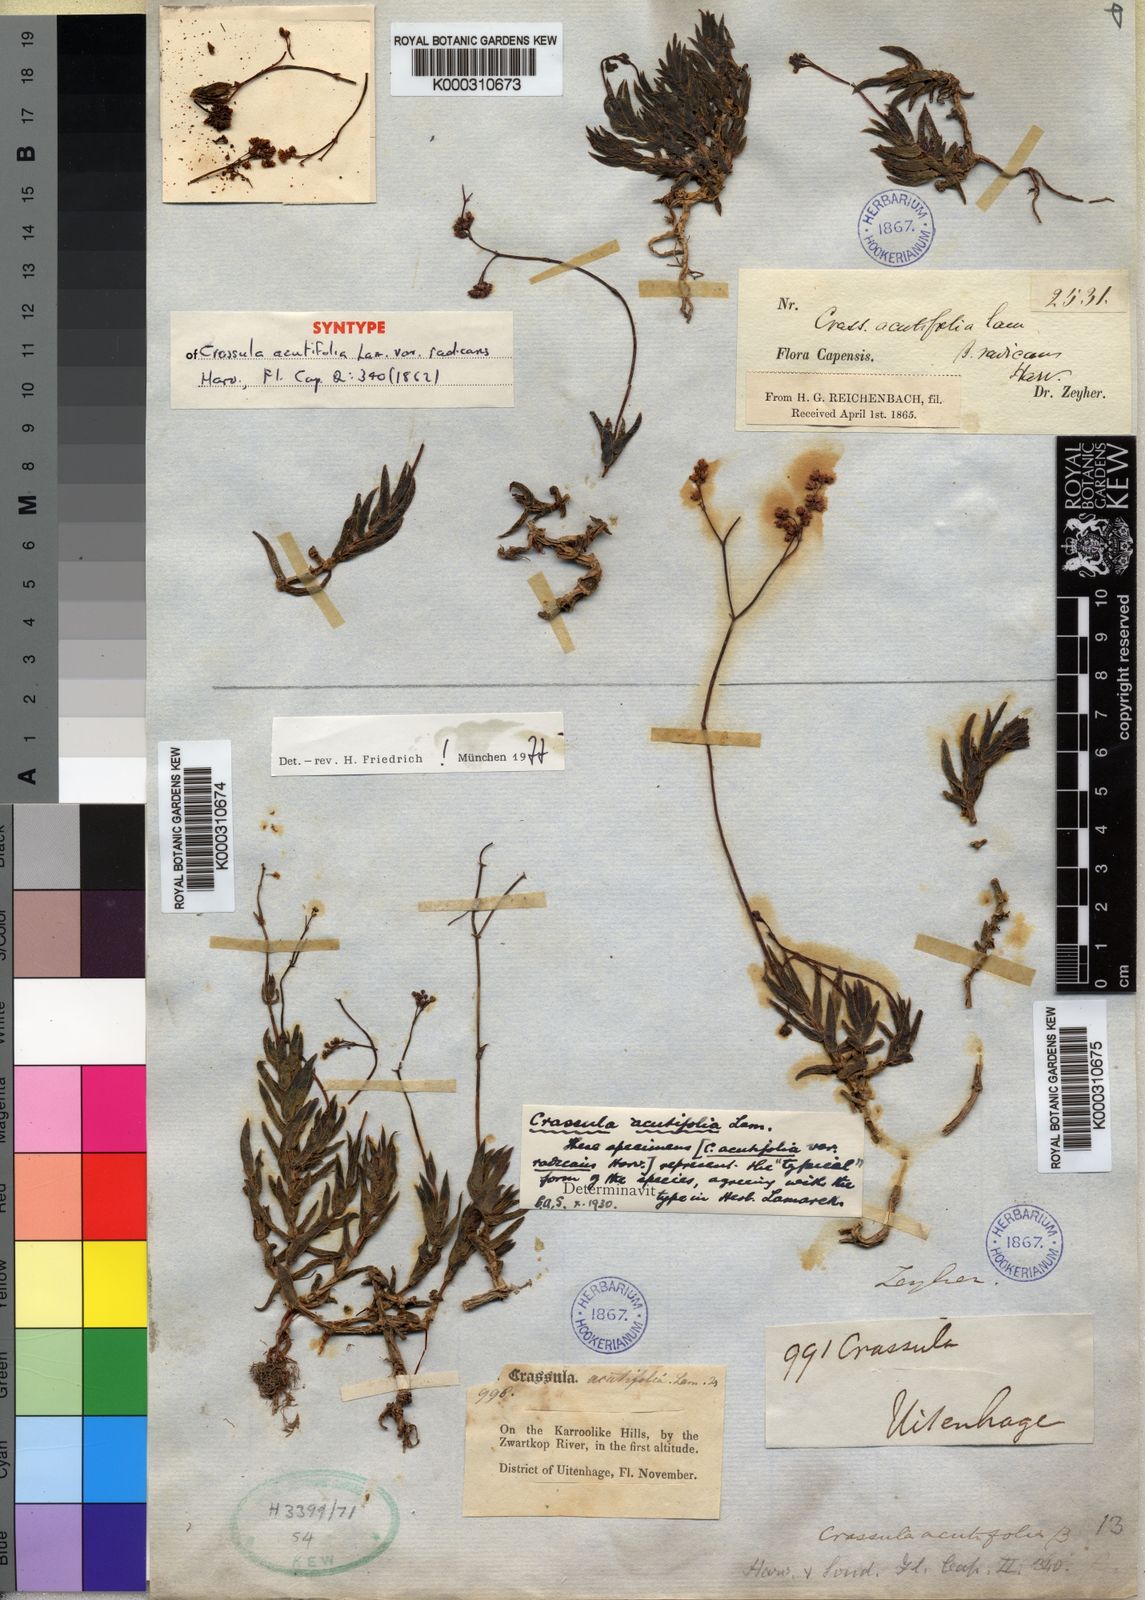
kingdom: Plantae
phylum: Tracheophyta
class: Magnoliopsida
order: Saxifragales
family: Crassulaceae
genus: Crassula
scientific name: Crassula tetragona
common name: Pygmyweed
